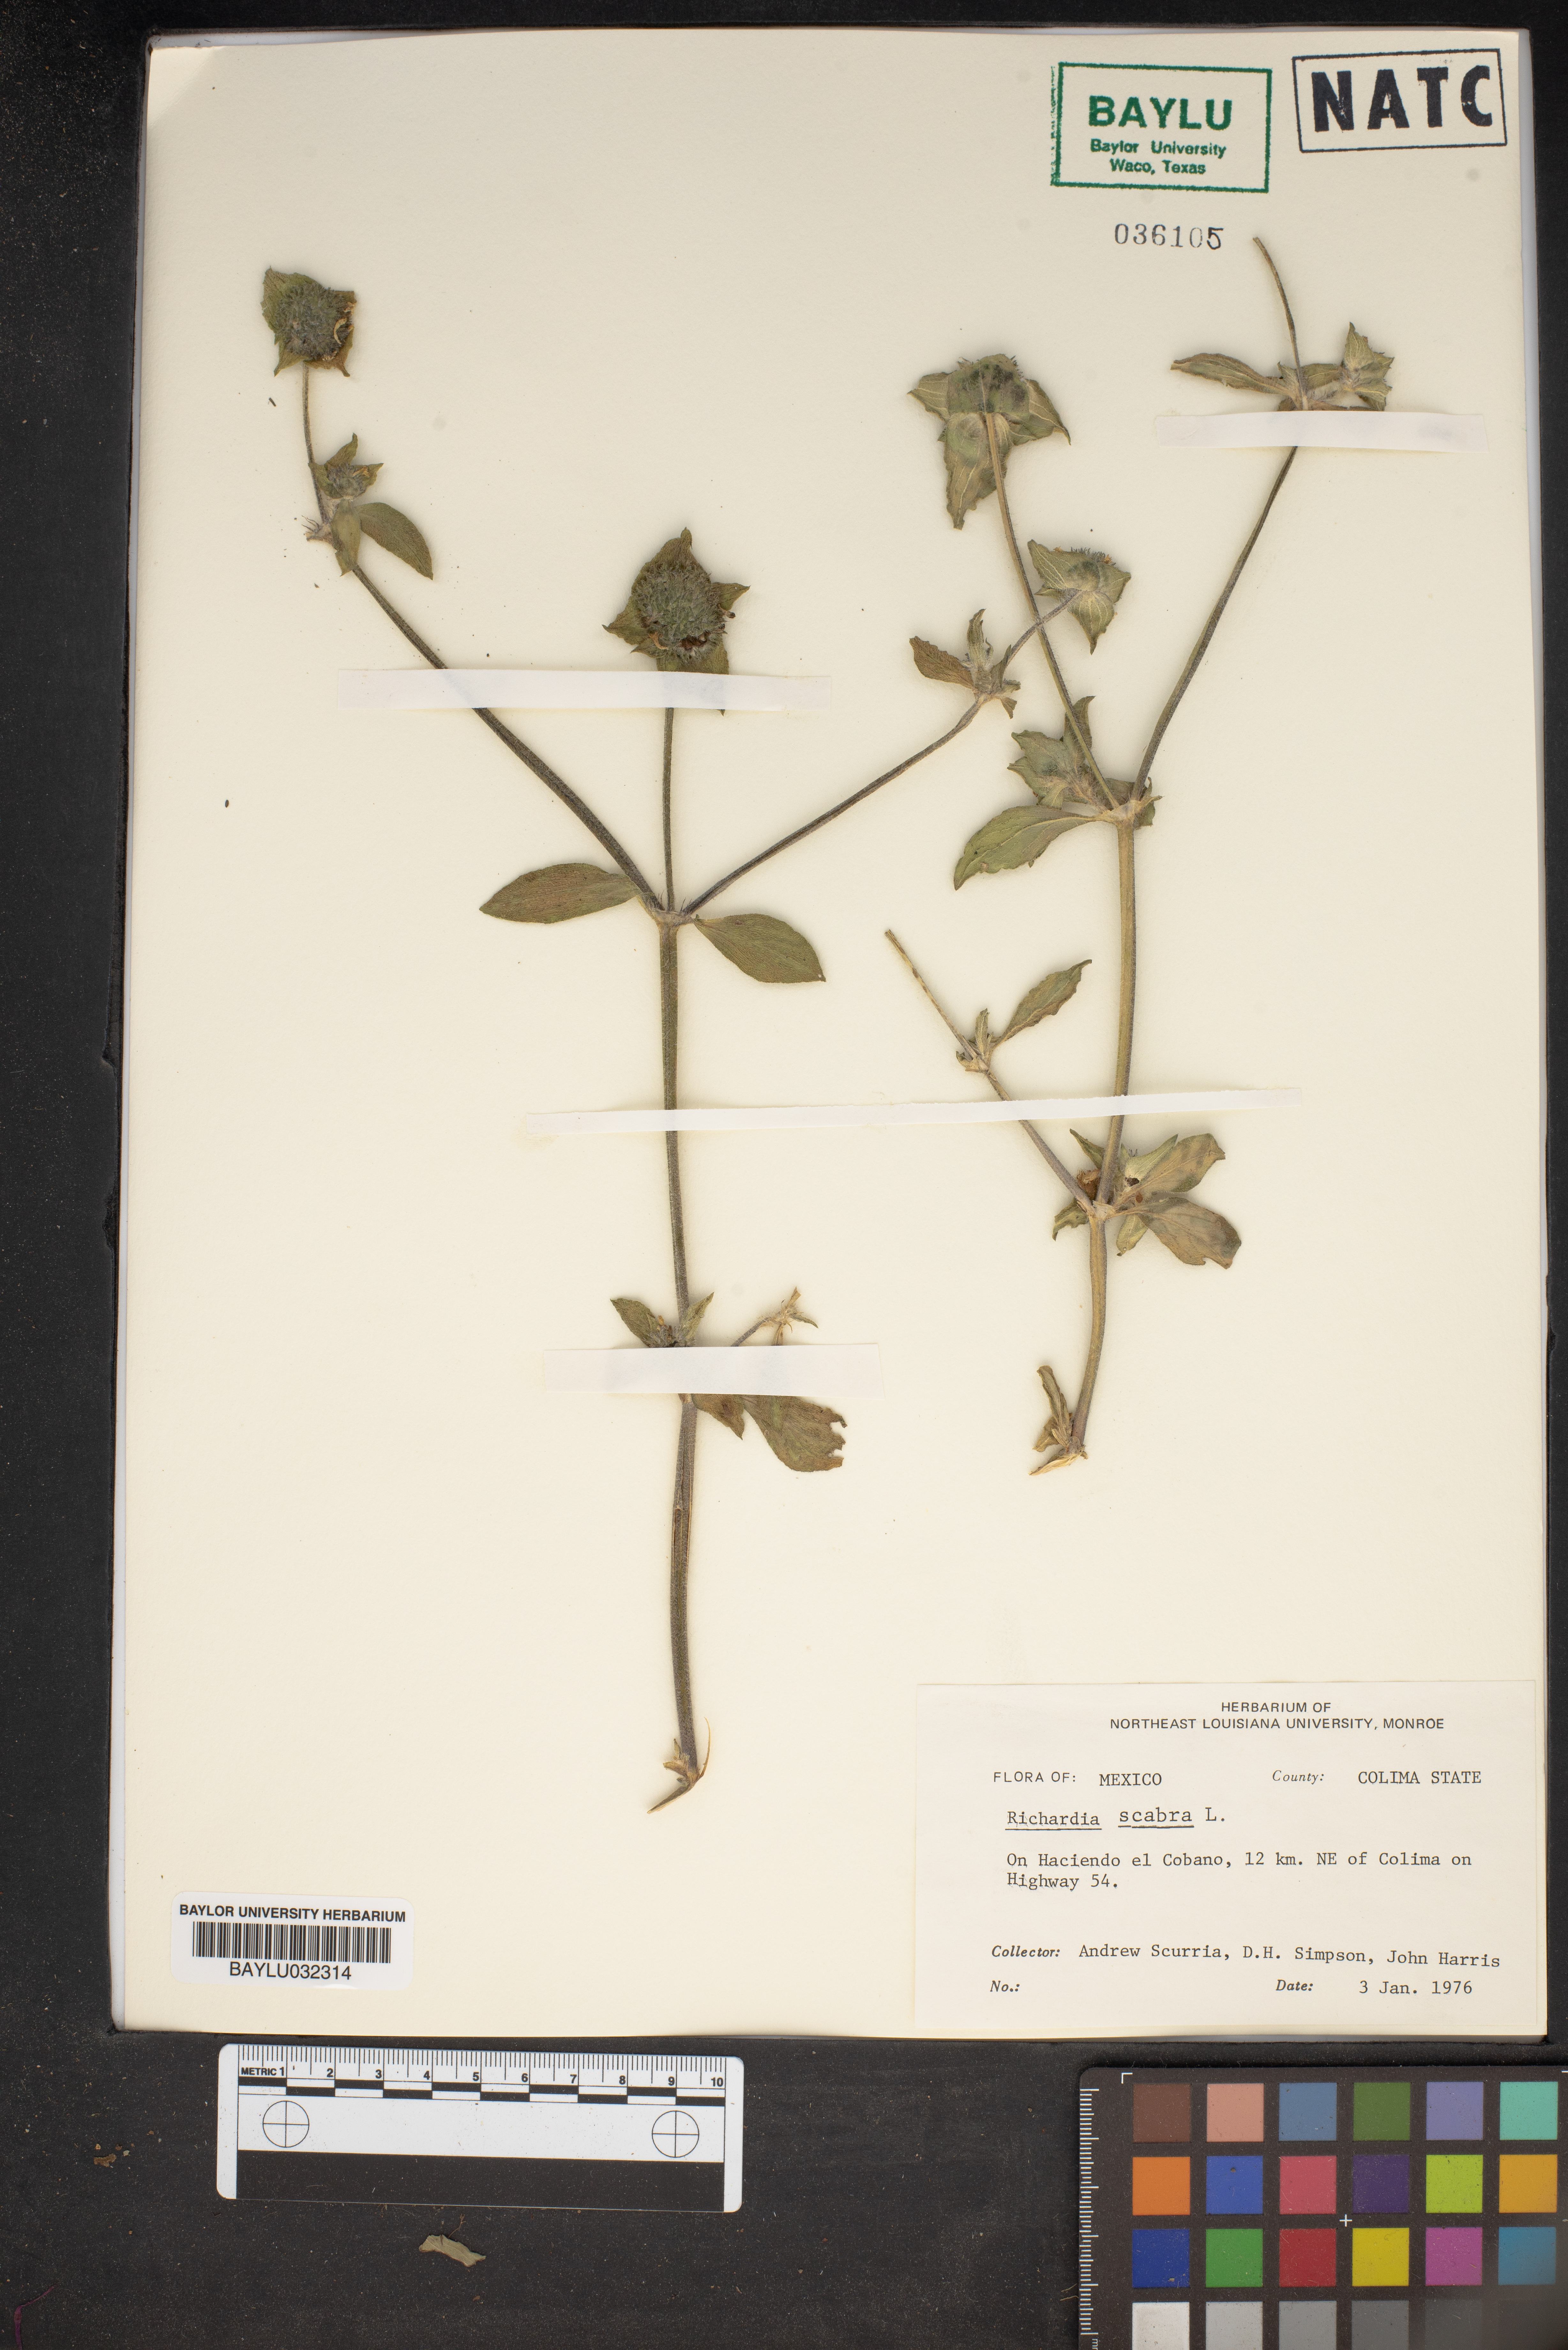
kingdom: Plantae
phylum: Tracheophyta
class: Magnoliopsida
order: Gentianales
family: Rubiaceae
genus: Richardia
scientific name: Richardia scabra
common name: Rough mexican clover
